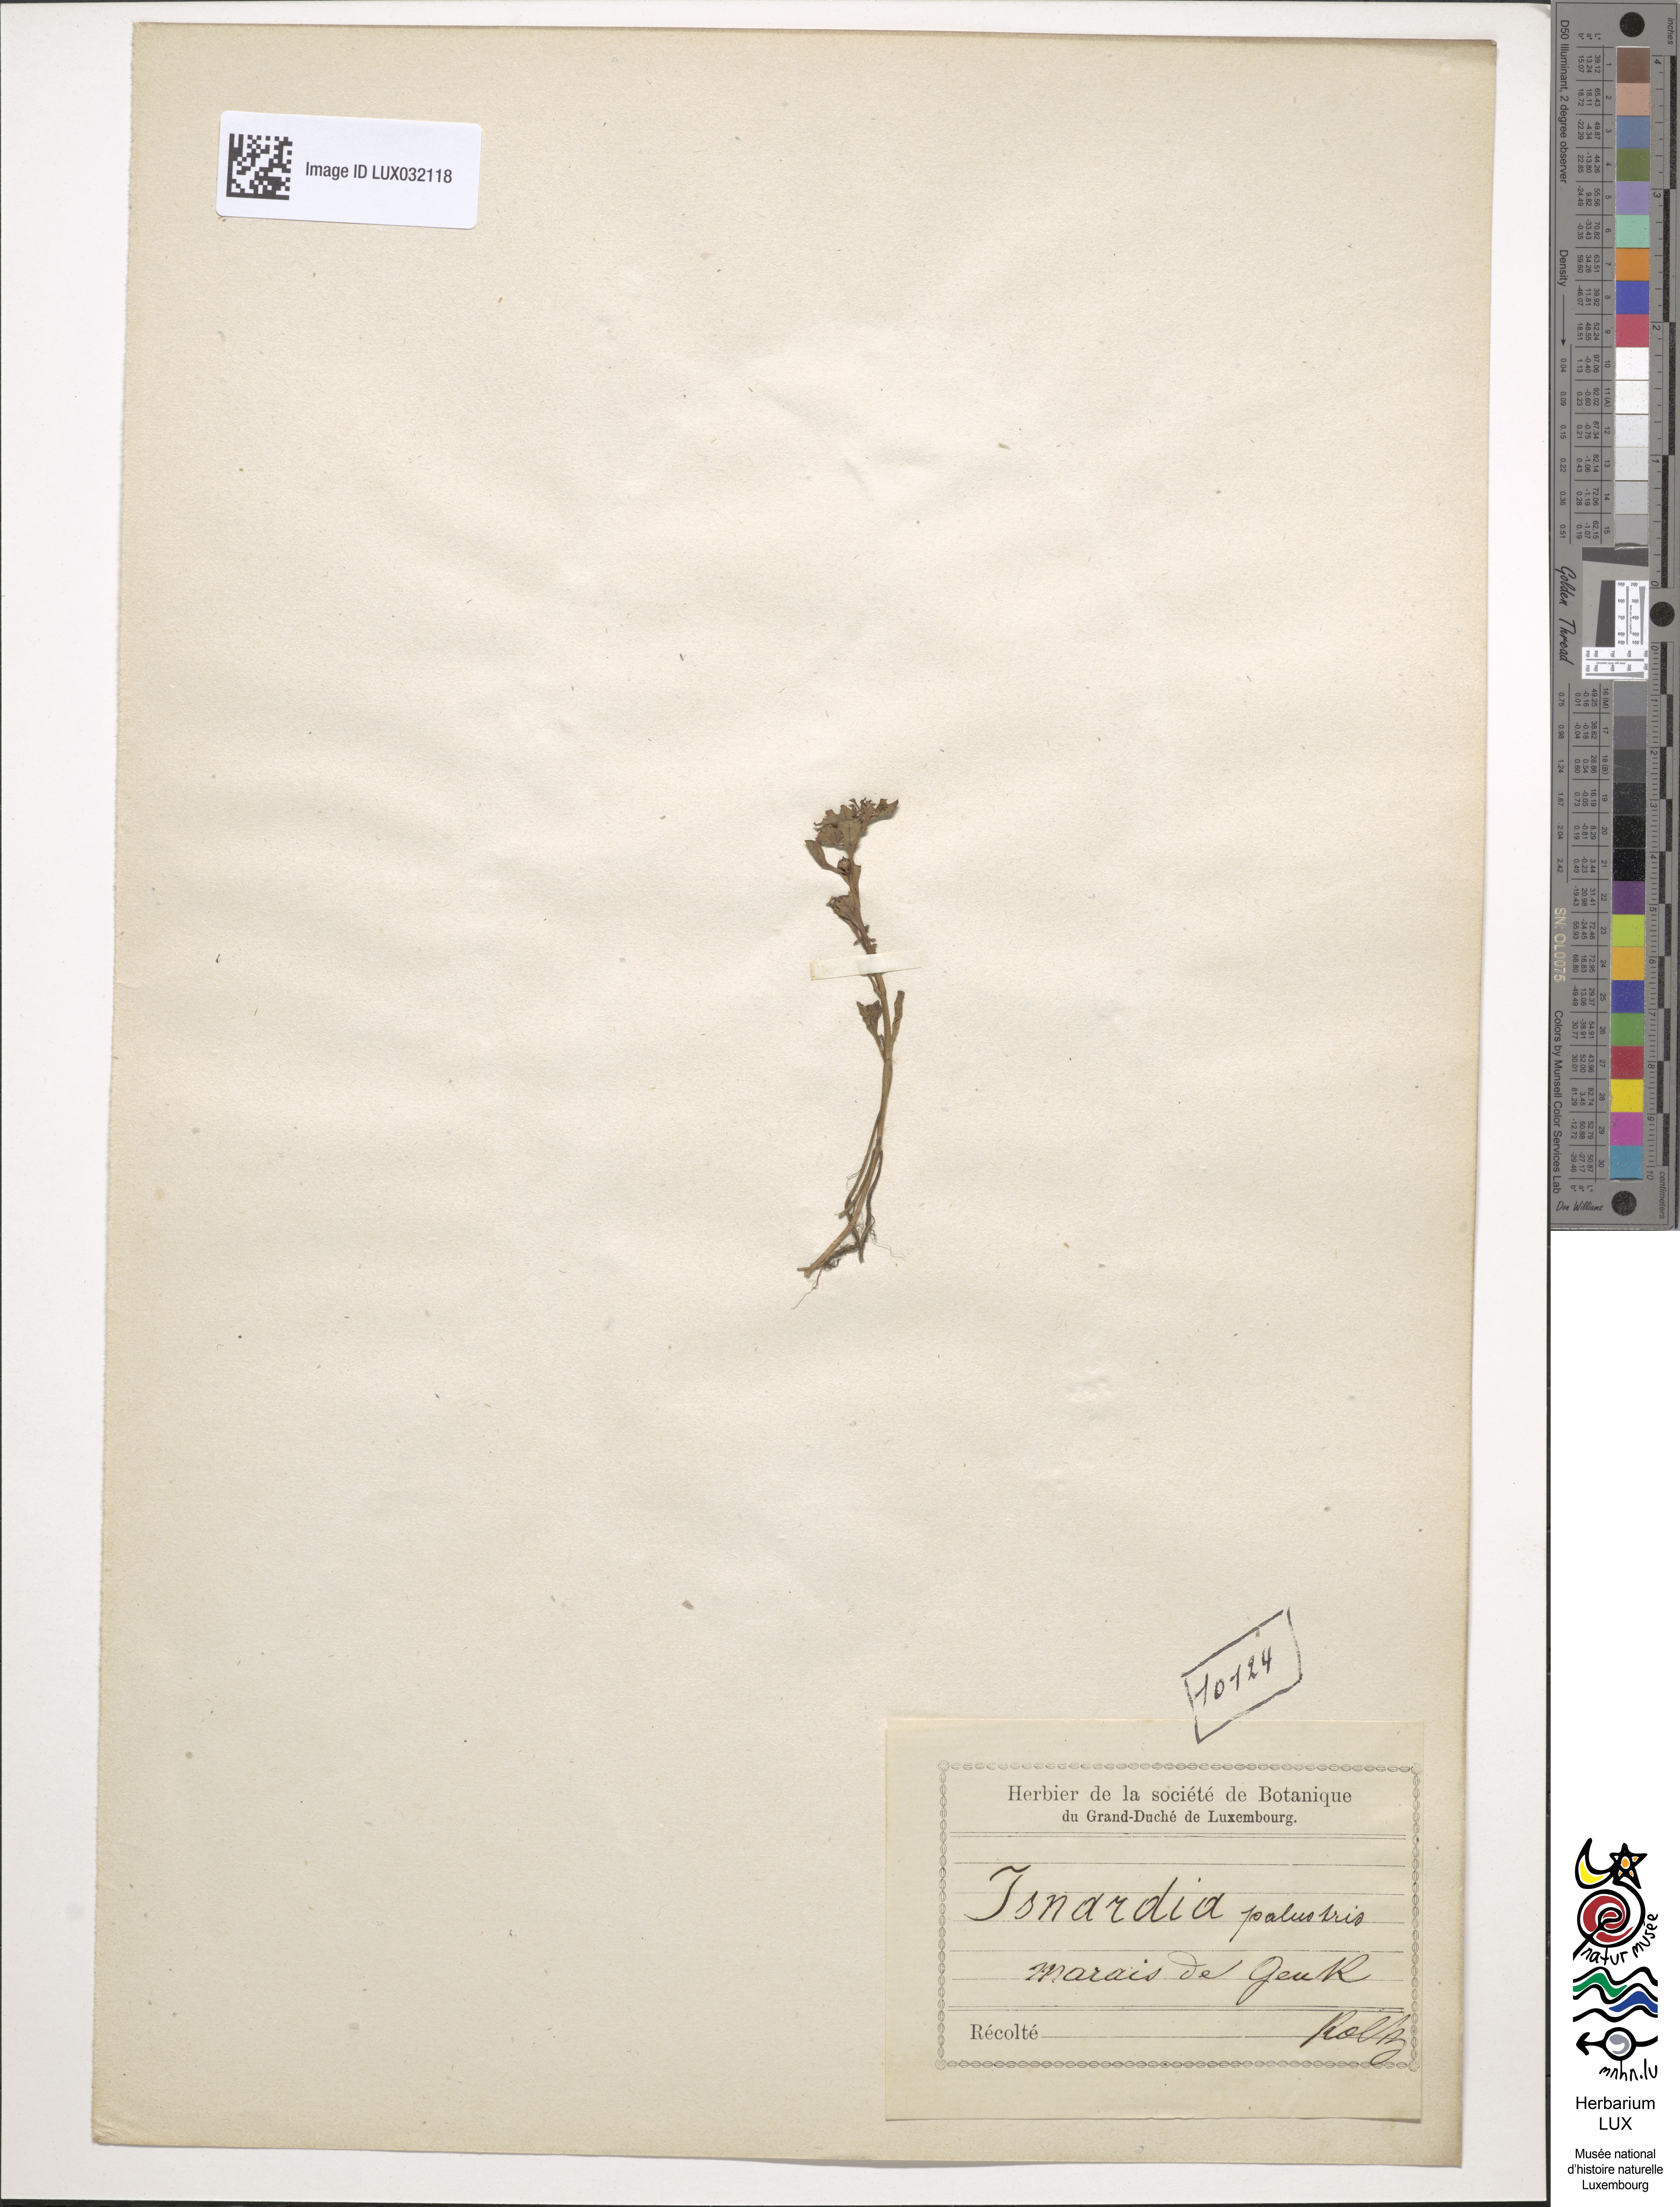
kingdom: Plantae
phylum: Tracheophyta
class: Magnoliopsida
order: Myrtales
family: Onagraceae
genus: Ludwigia
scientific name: Ludwigia palustris
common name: Hampshire-purslane
